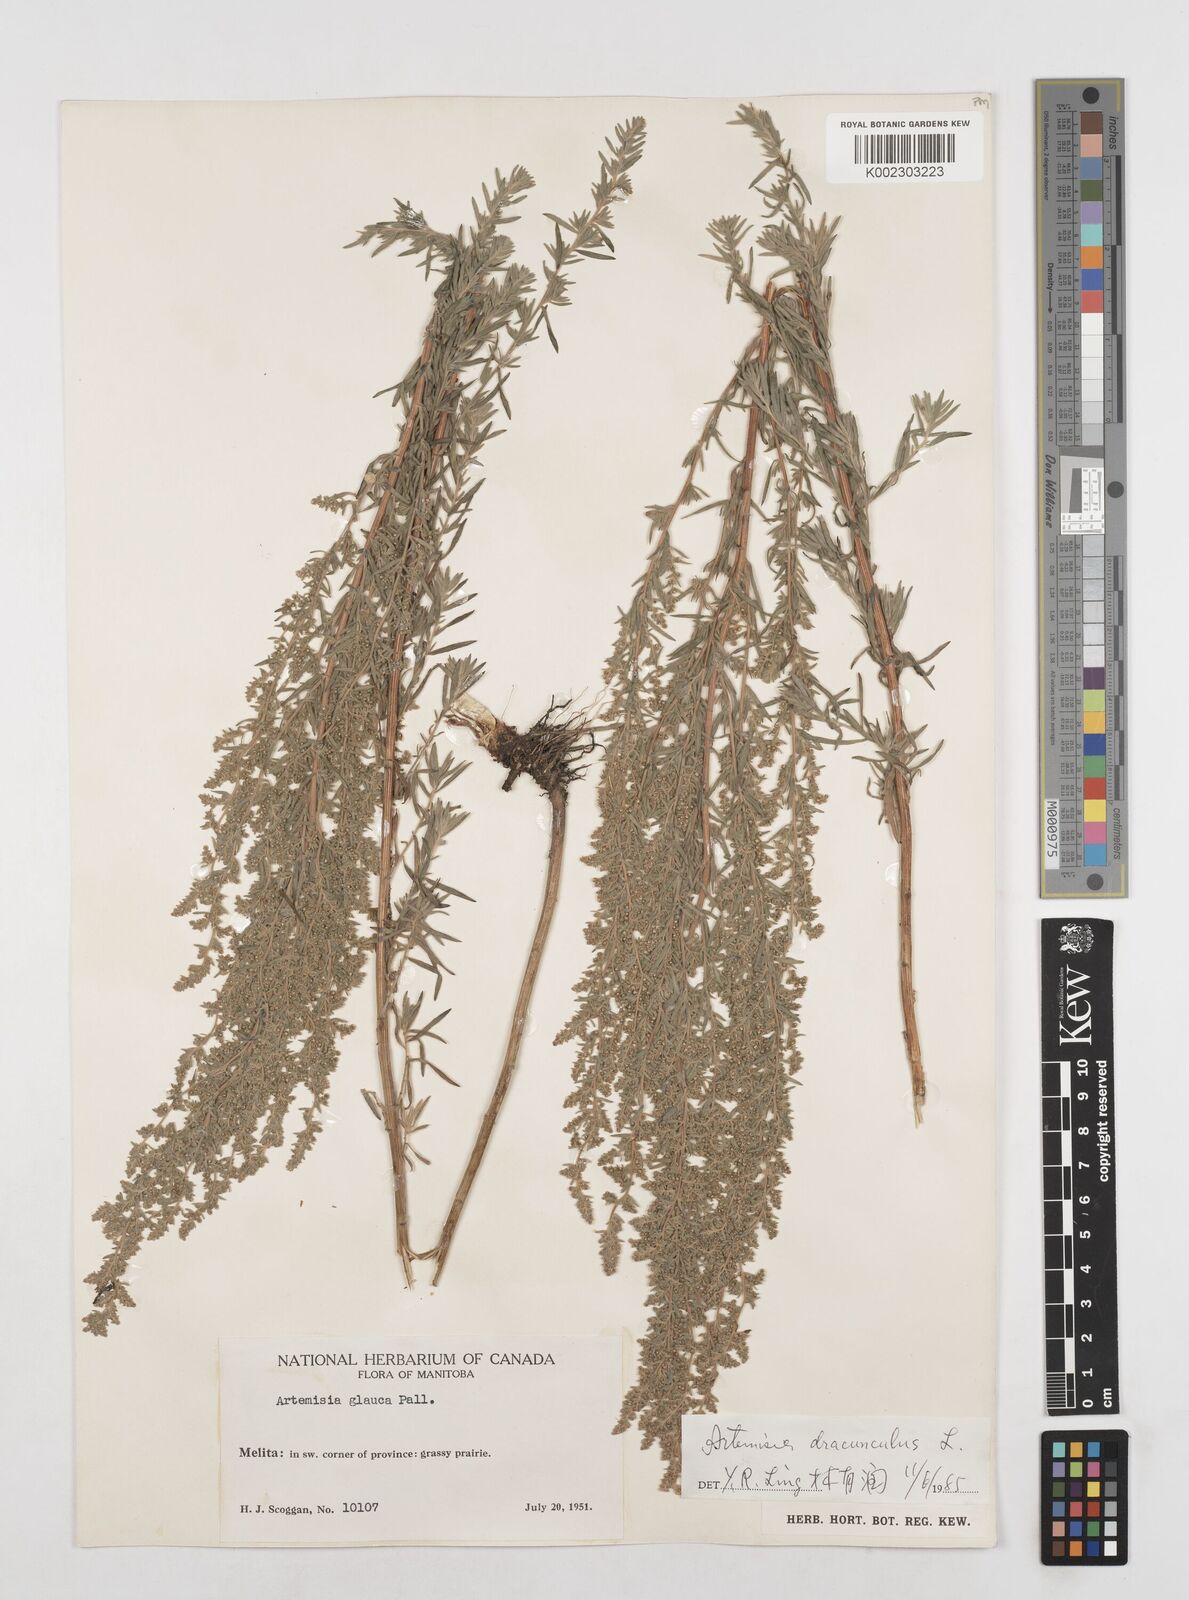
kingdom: Plantae
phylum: Tracheophyta
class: Magnoliopsida
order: Asterales
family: Asteraceae
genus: Artemisia
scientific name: Artemisia dracunculus
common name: Tarragon
